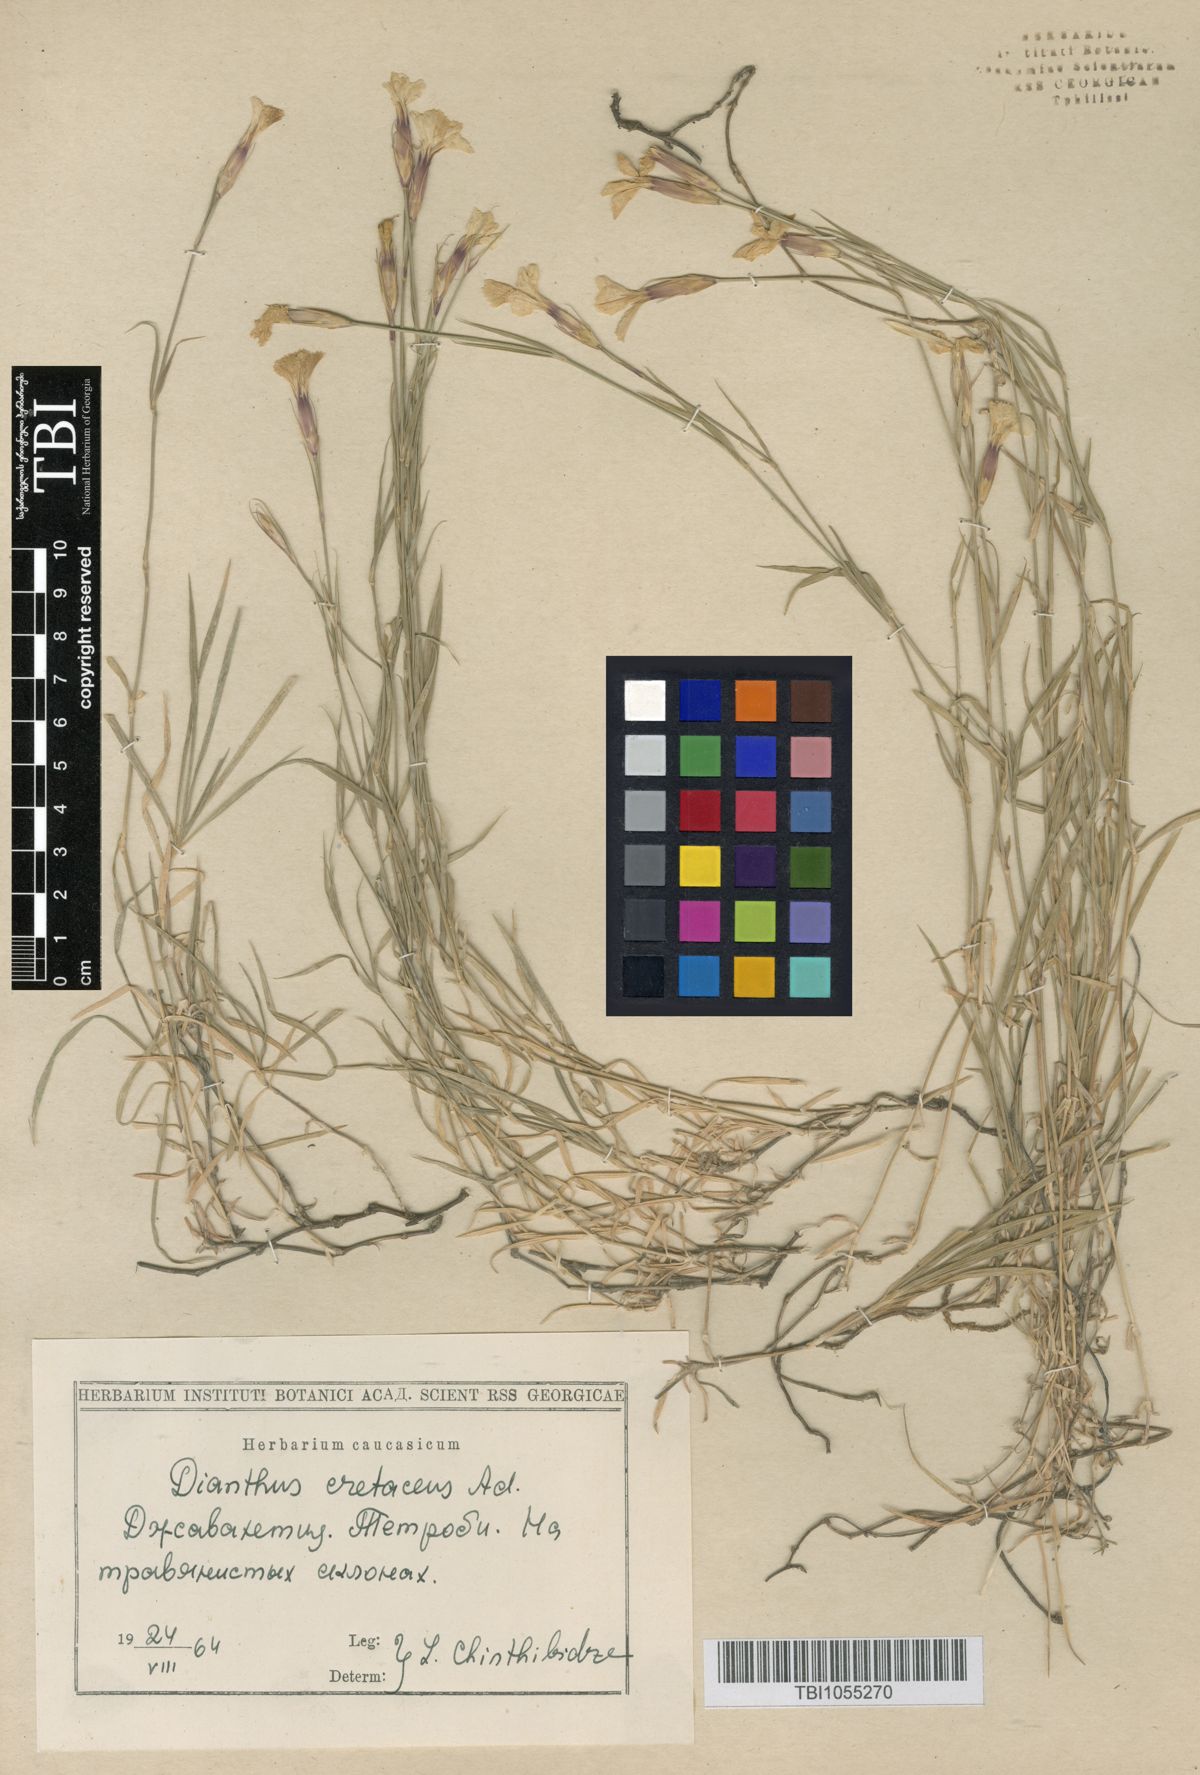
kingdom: Plantae
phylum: Tracheophyta
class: Magnoliopsida
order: Caryophyllales
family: Caryophyllaceae
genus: Dianthus
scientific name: Dianthus cretaceus
